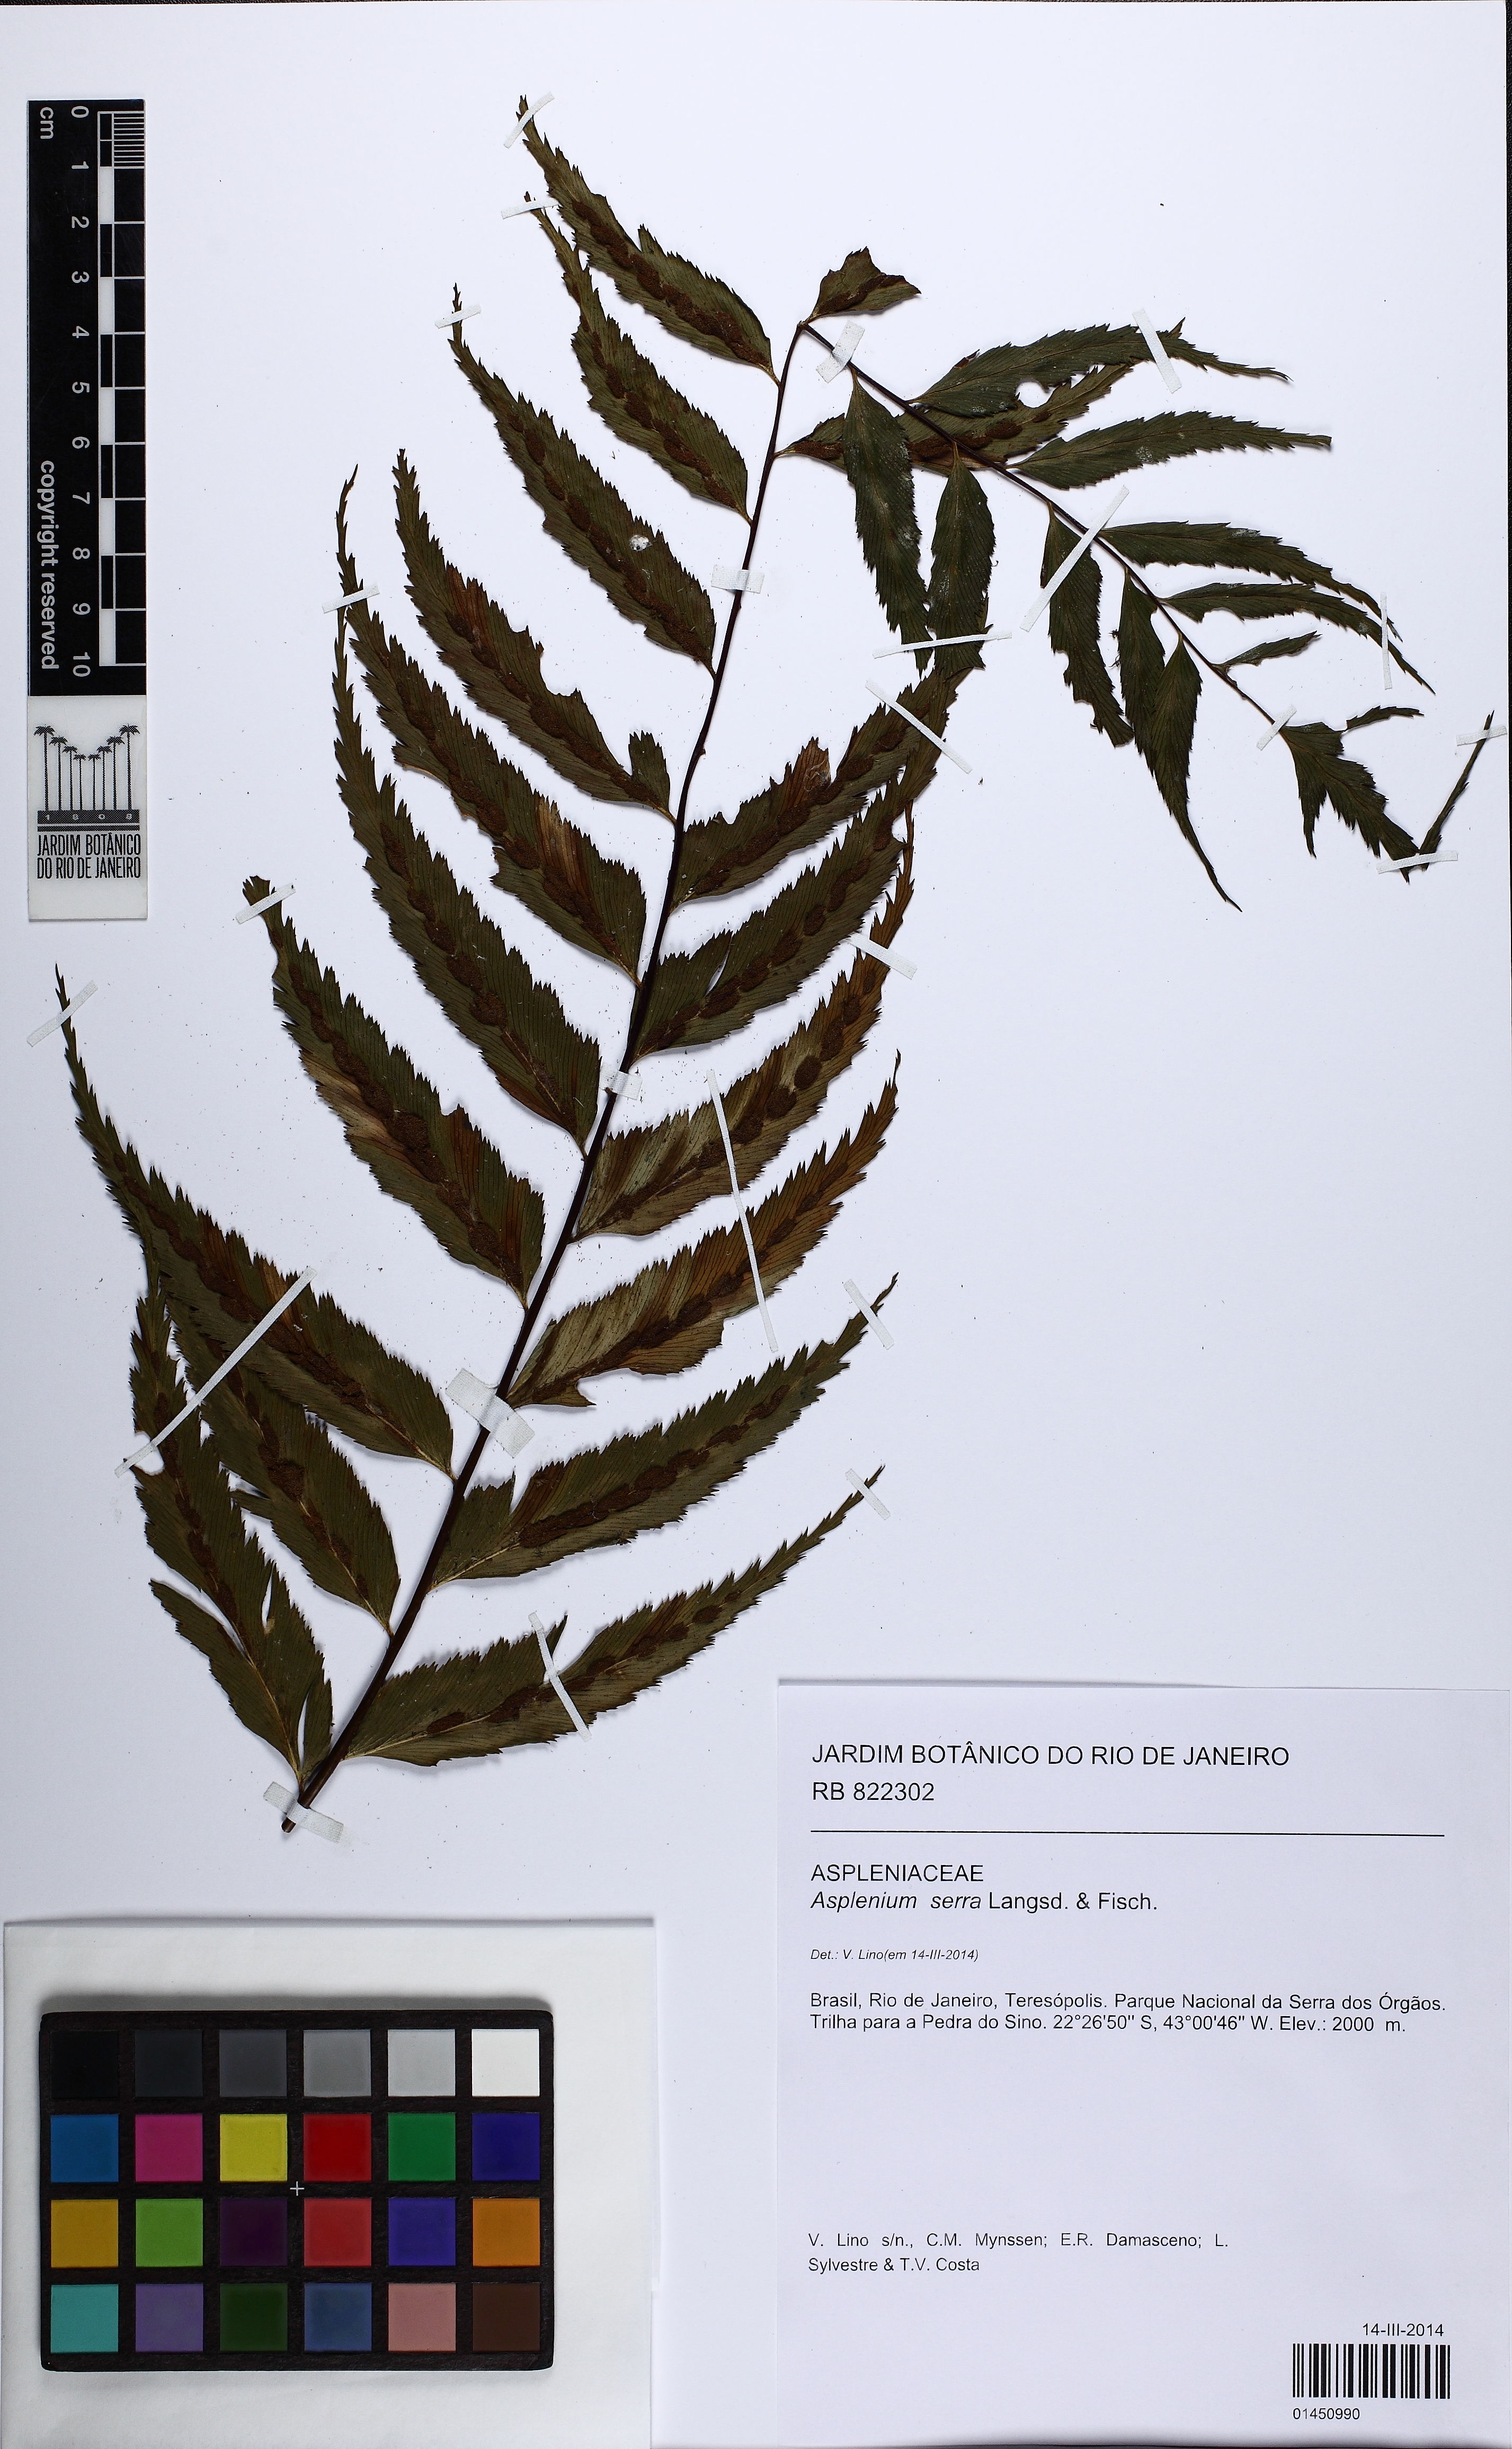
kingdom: Plantae
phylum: Tracheophyta
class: Polypodiopsida
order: Polypodiales
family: Aspleniaceae
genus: Asplenium
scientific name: Asplenium serra
